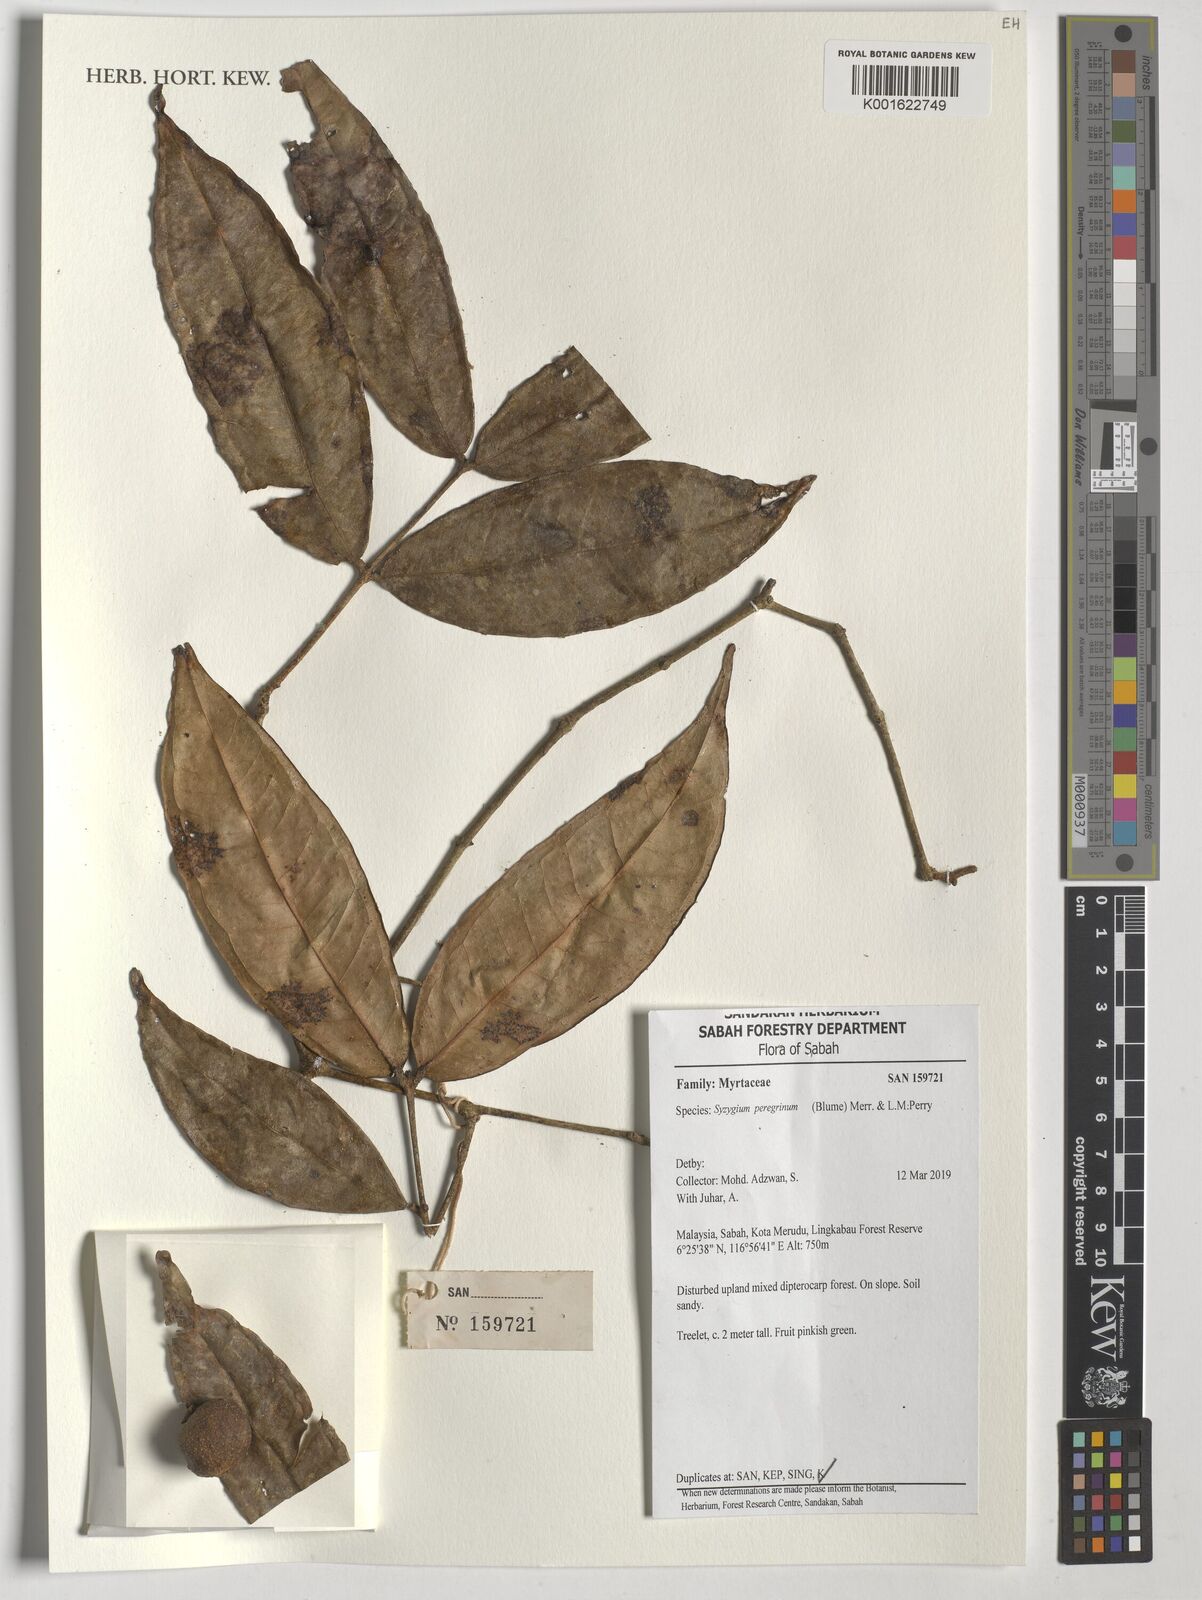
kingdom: Plantae
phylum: Tracheophyta
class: Magnoliopsida
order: Myrtales
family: Myrtaceae
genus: Syzygium
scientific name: Syzygium peregrinum
